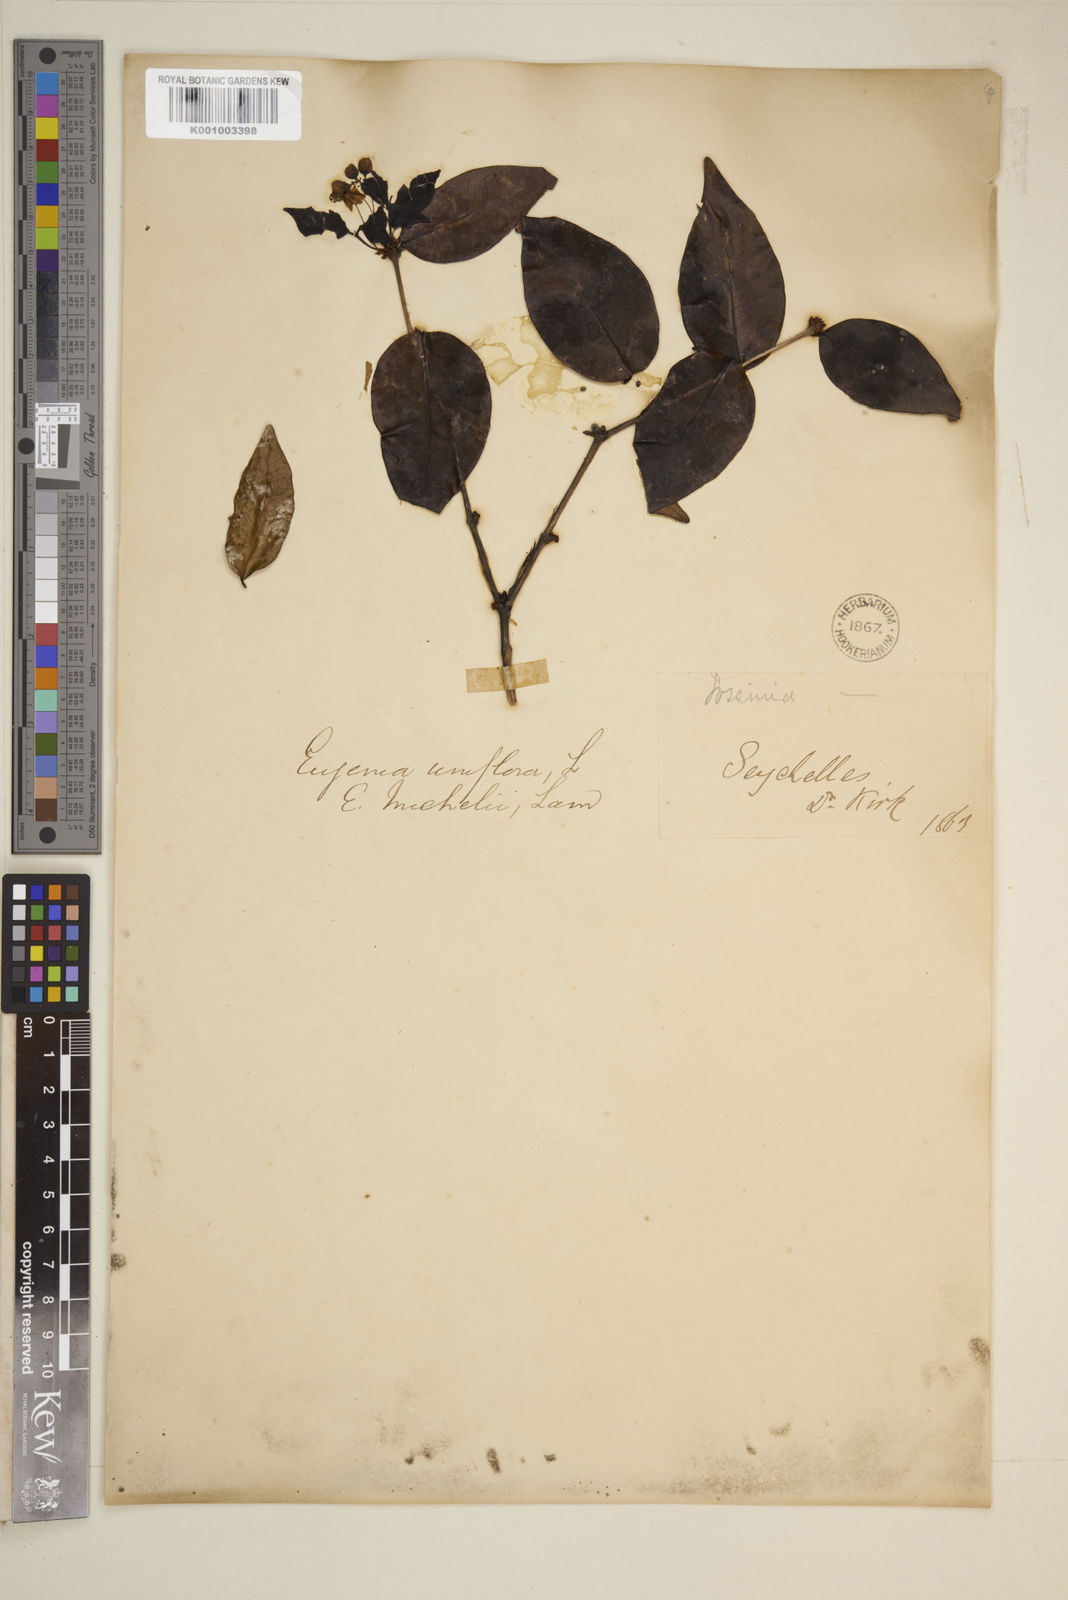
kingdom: Plantae
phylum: Tracheophyta
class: Magnoliopsida
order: Myrtales
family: Myrtaceae
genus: Eugenia
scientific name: Eugenia uniflora
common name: Surinam cherry
